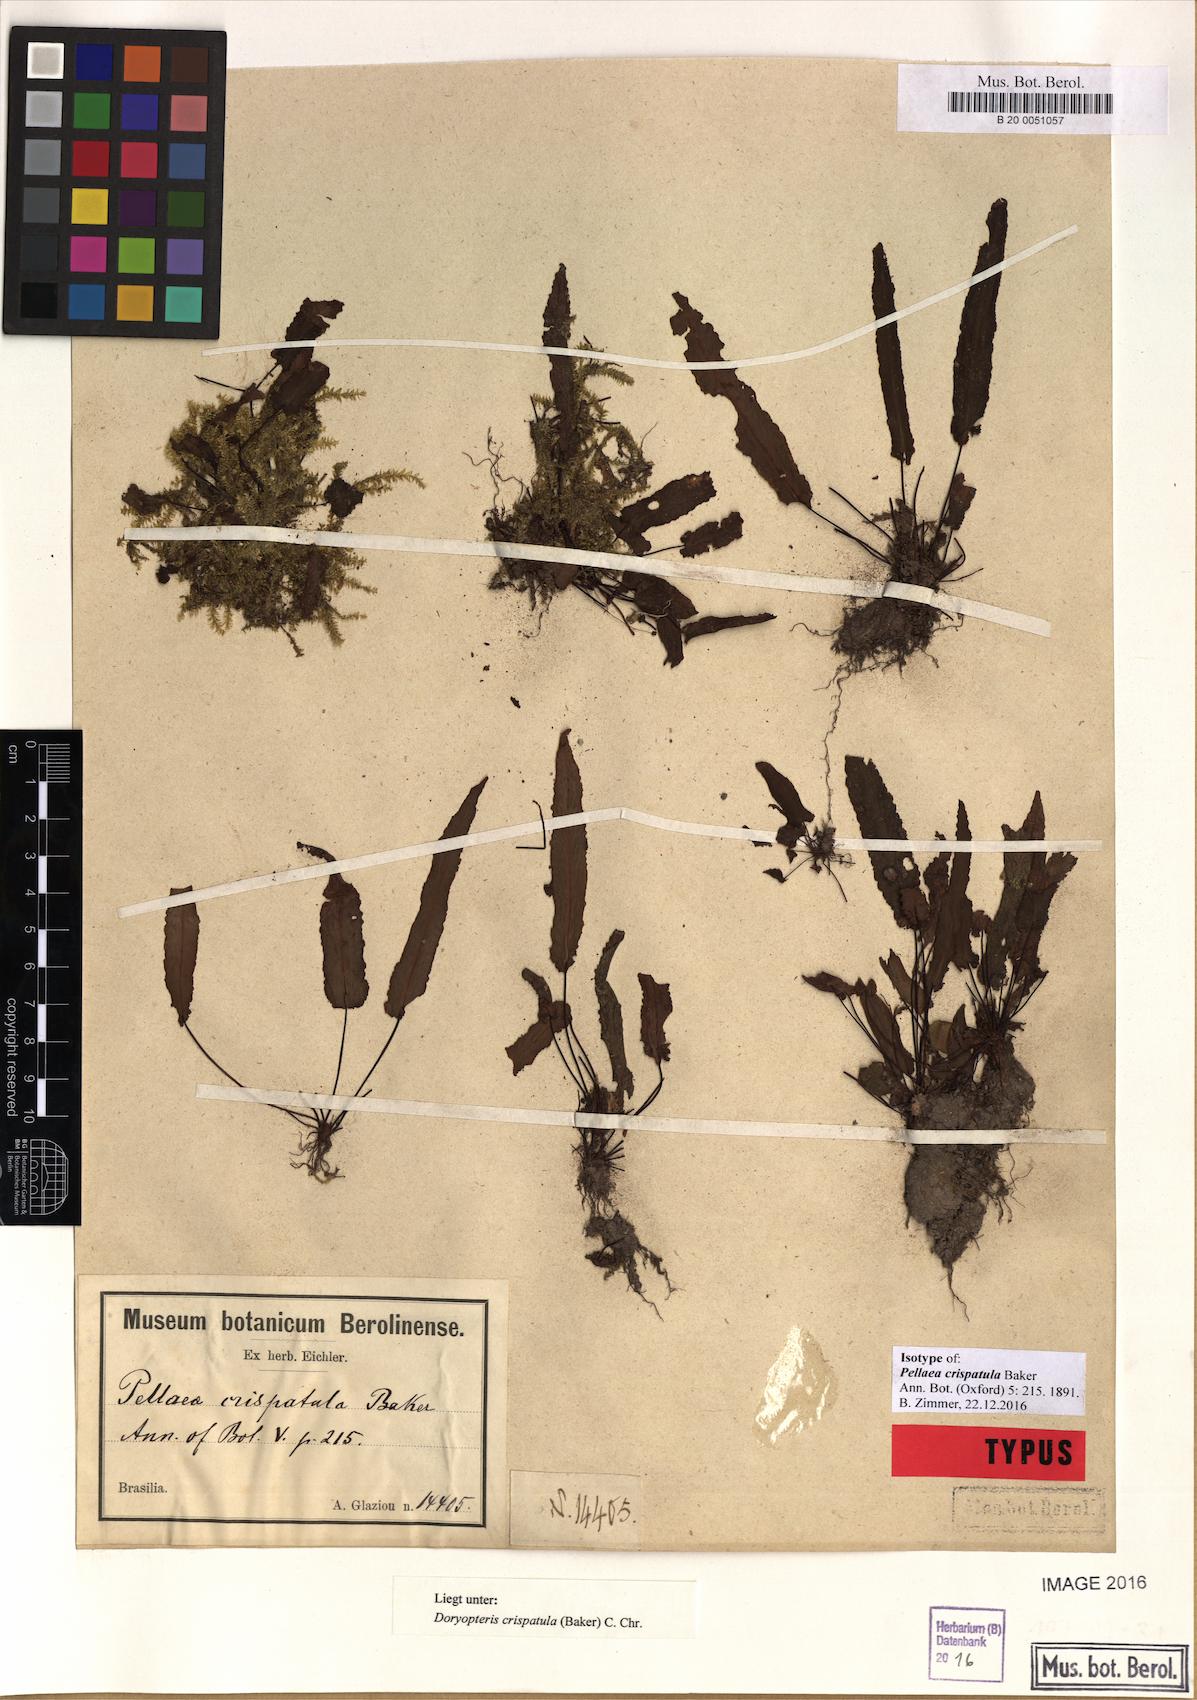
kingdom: Plantae
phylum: Tracheophyta
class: Polypodiopsida
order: Polypodiales
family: Pteridaceae
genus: Doryopteris
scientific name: Doryopteris crispatula
